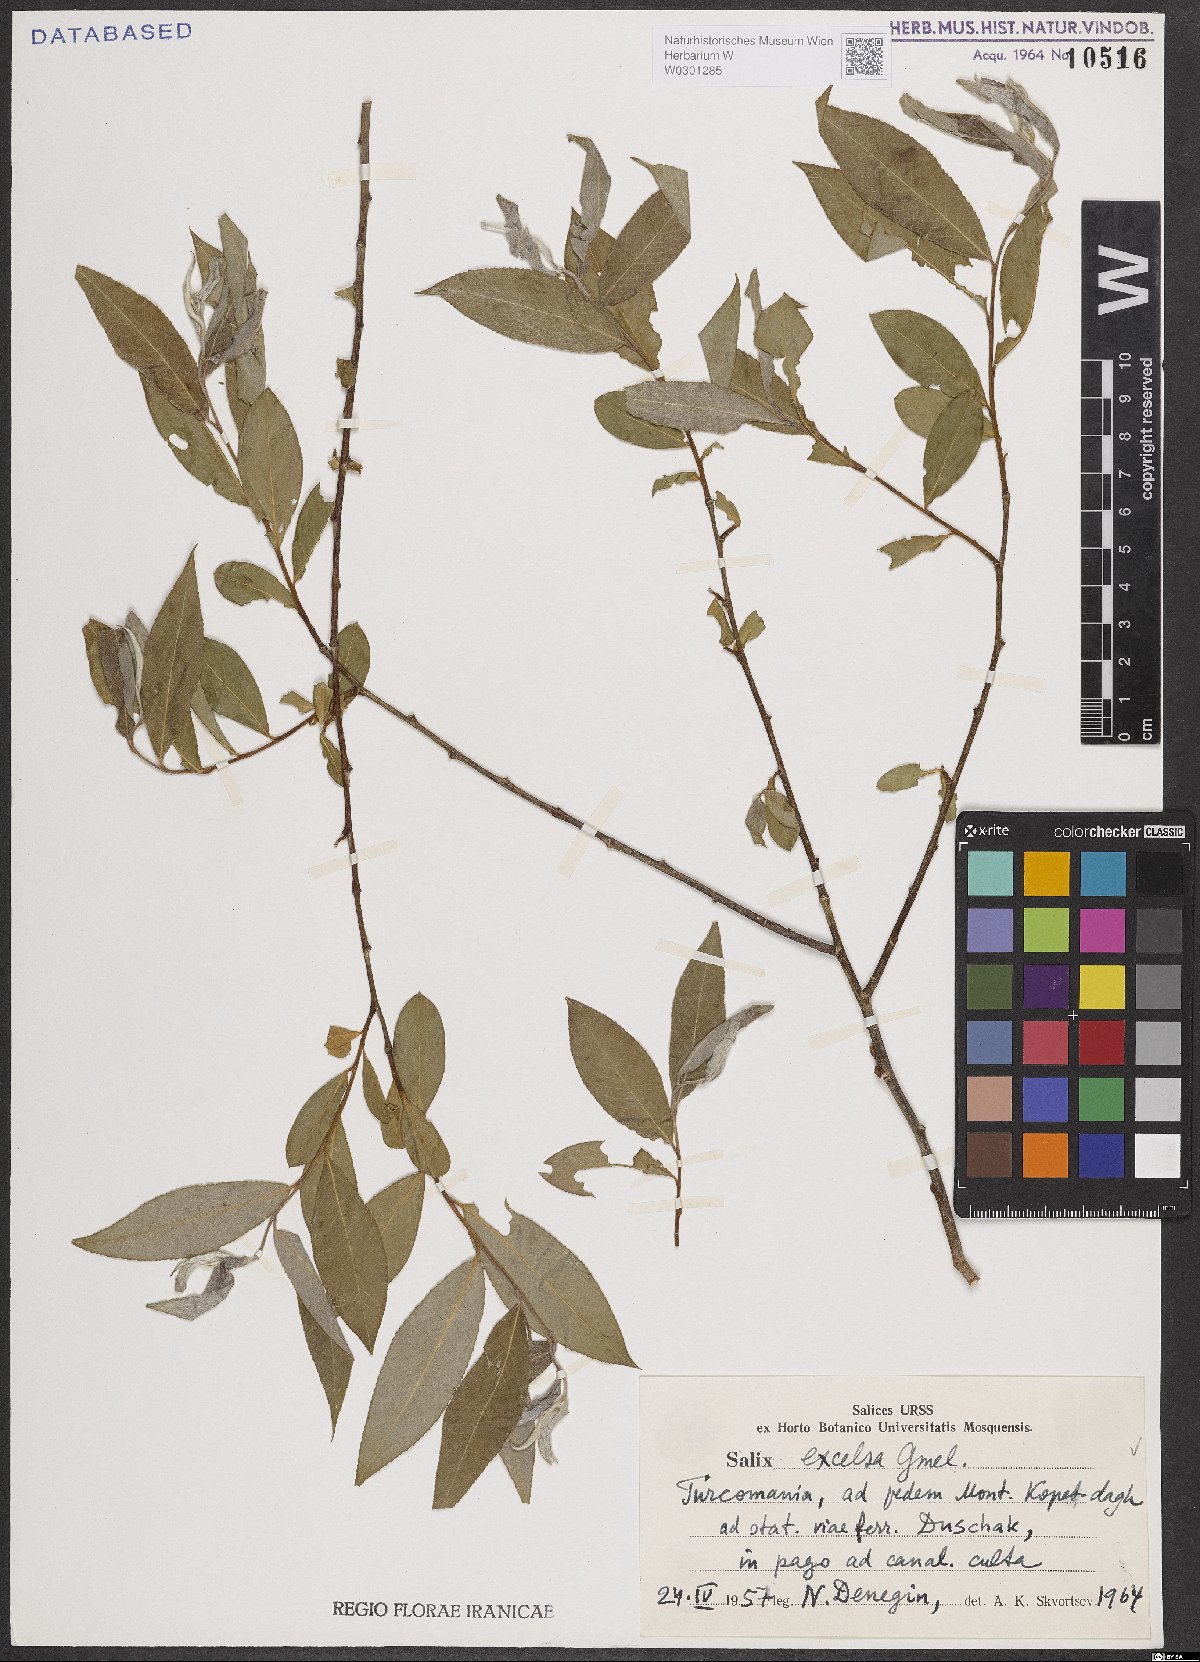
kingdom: Plantae
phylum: Tracheophyta
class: Magnoliopsida
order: Malpighiales
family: Salicaceae
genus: Salix
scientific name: Salix excelsa
